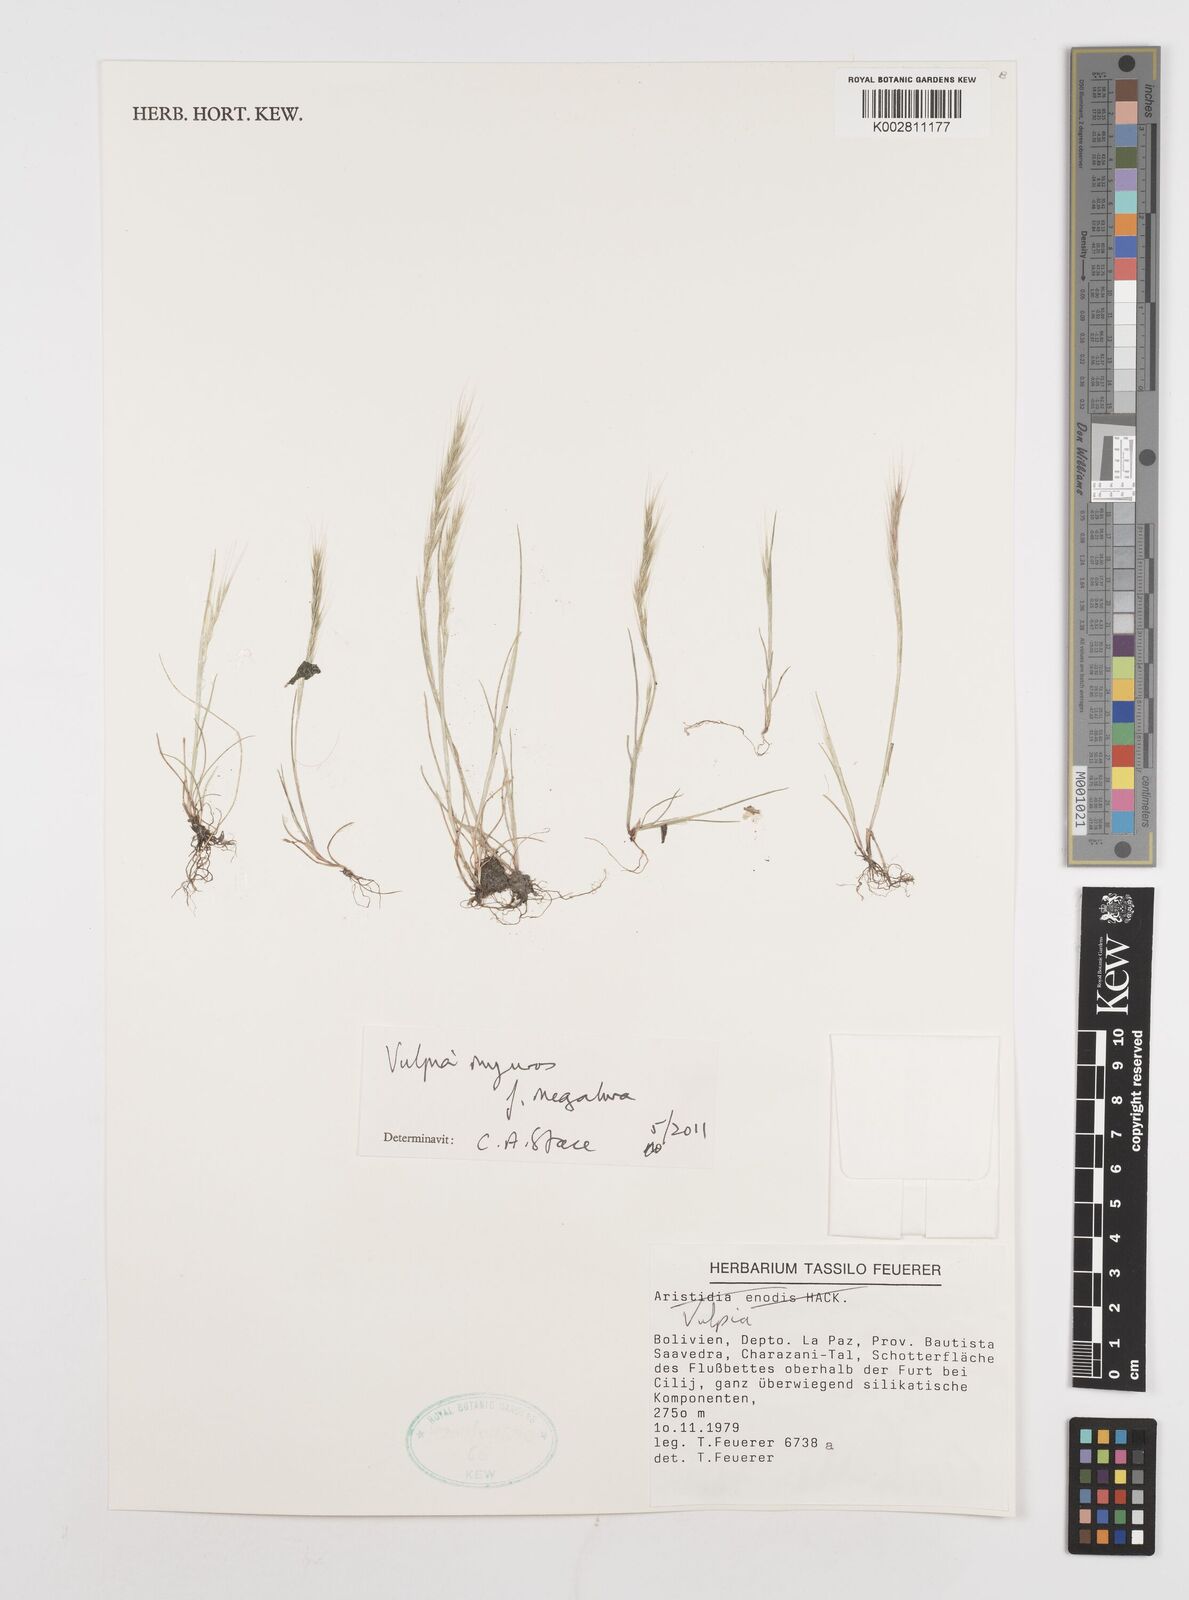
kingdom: Plantae
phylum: Tracheophyta
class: Liliopsida
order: Poales
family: Poaceae
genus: Festuca
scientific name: Festuca myuros
